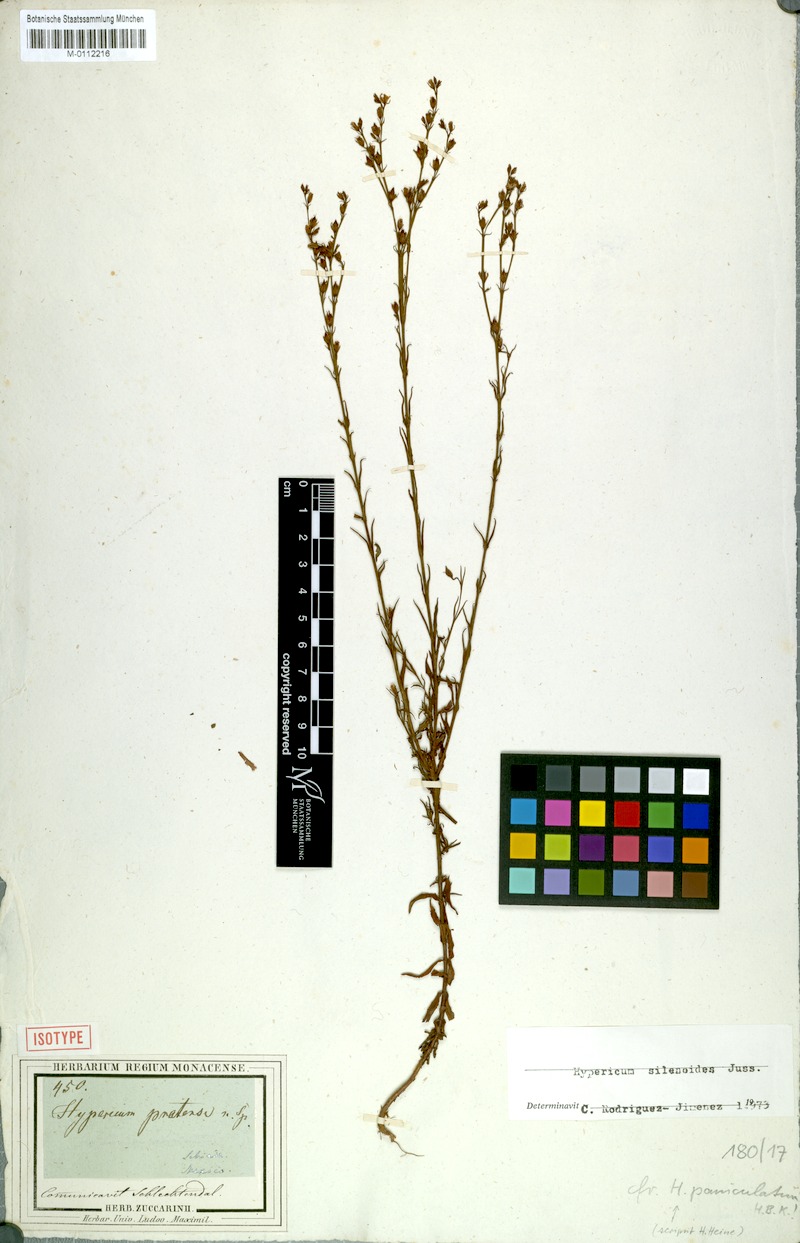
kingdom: Plantae
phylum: Tracheophyta
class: Magnoliopsida
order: Malpighiales
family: Hypericaceae
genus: Hypericum
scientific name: Hypericum silenoides
